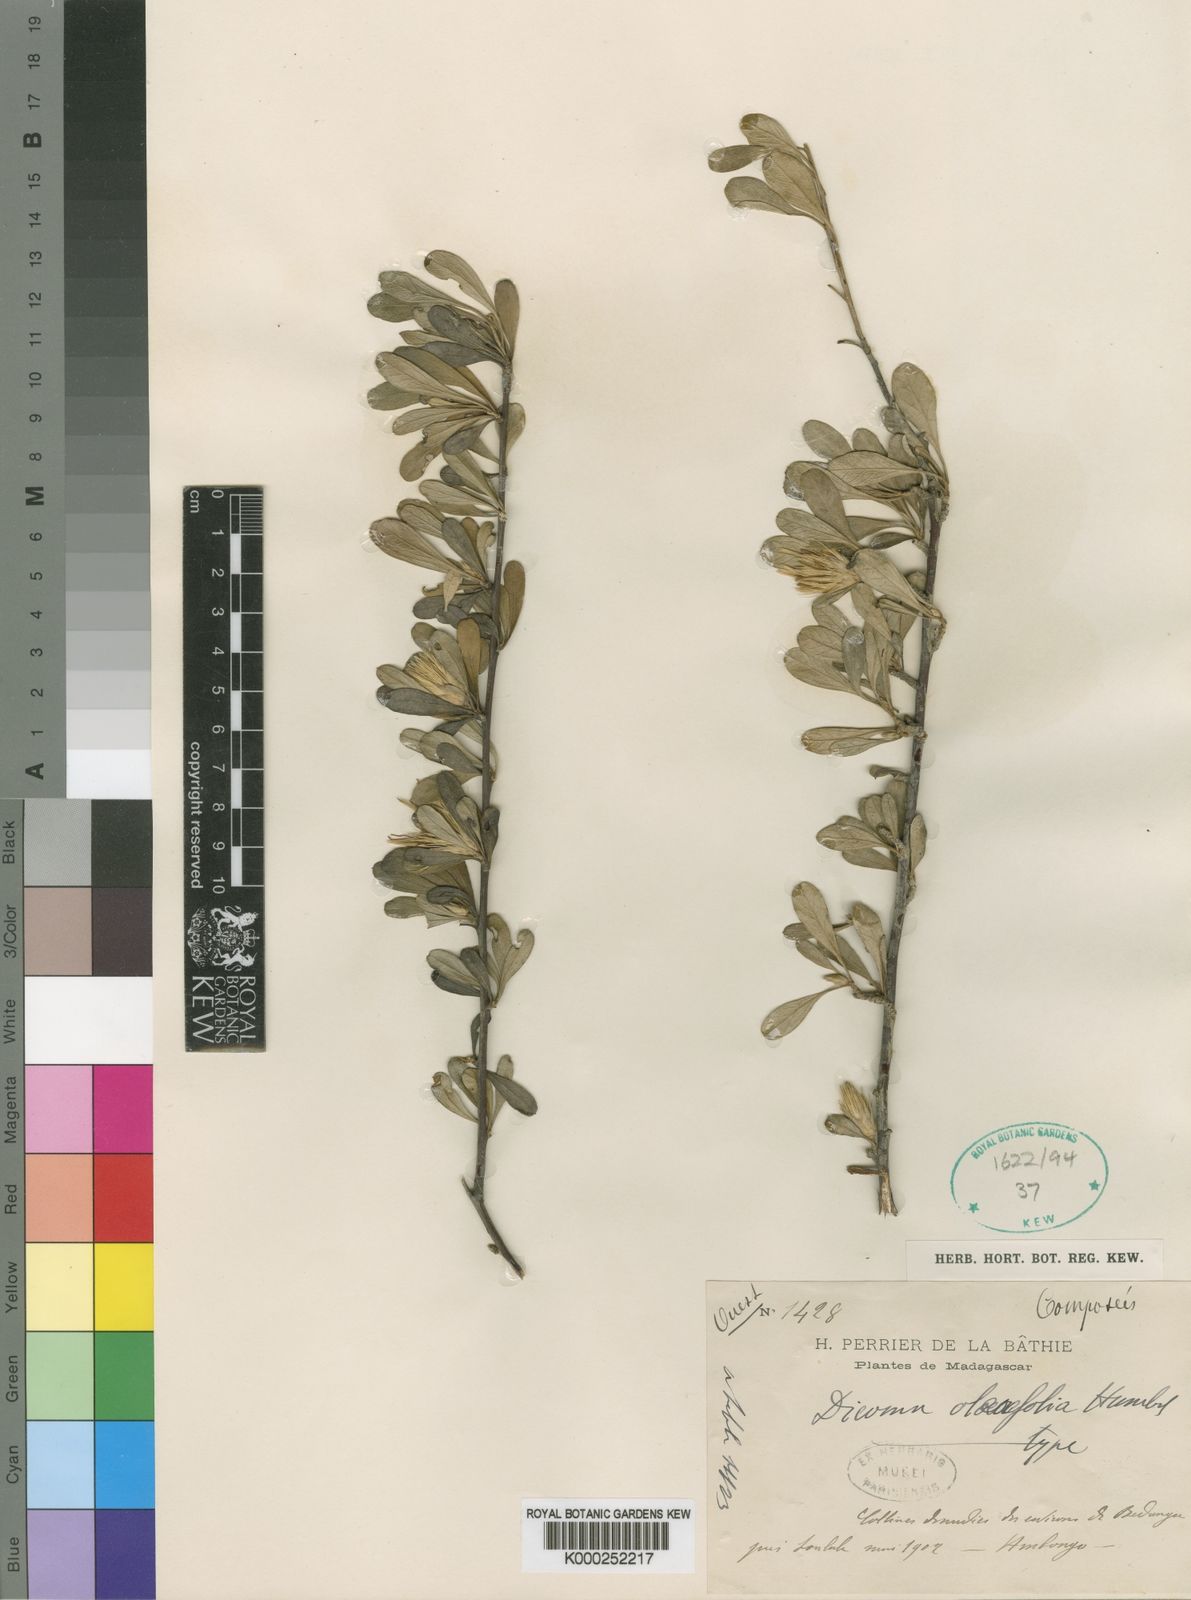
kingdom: Plantae
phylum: Tracheophyta
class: Magnoliopsida
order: Asterales
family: Asteraceae
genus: Cloiselia
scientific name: Cloiselia oleifolia
